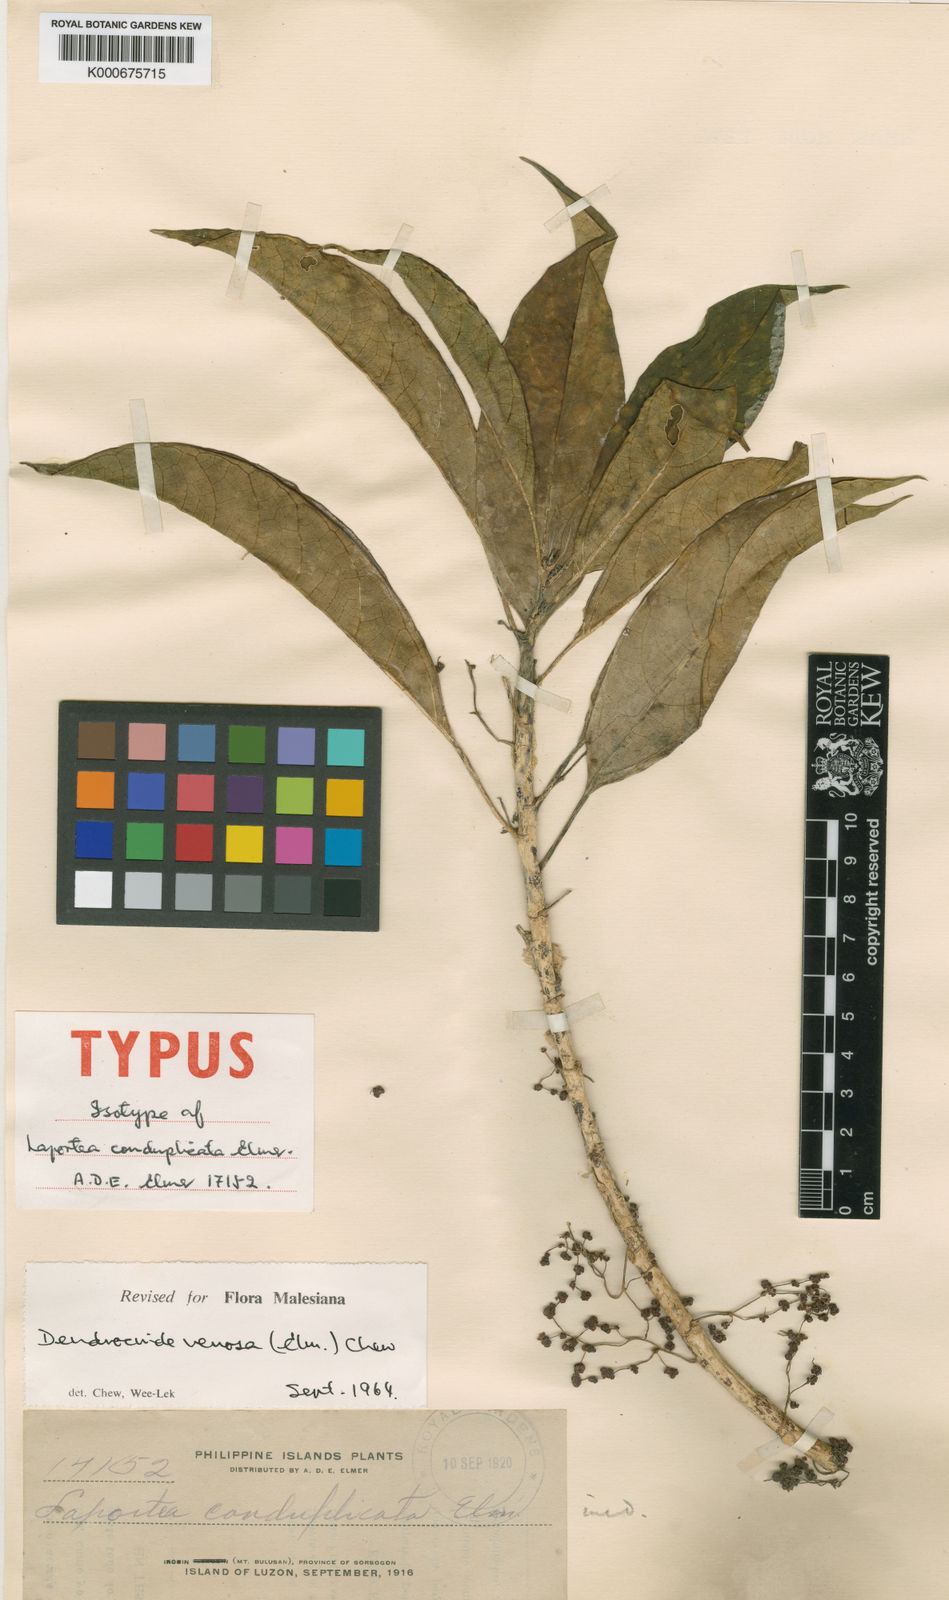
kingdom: Plantae
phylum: Tracheophyta
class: Magnoliopsida
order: Rosales
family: Urticaceae
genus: Dendrocnide
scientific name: Dendrocnide venosa
